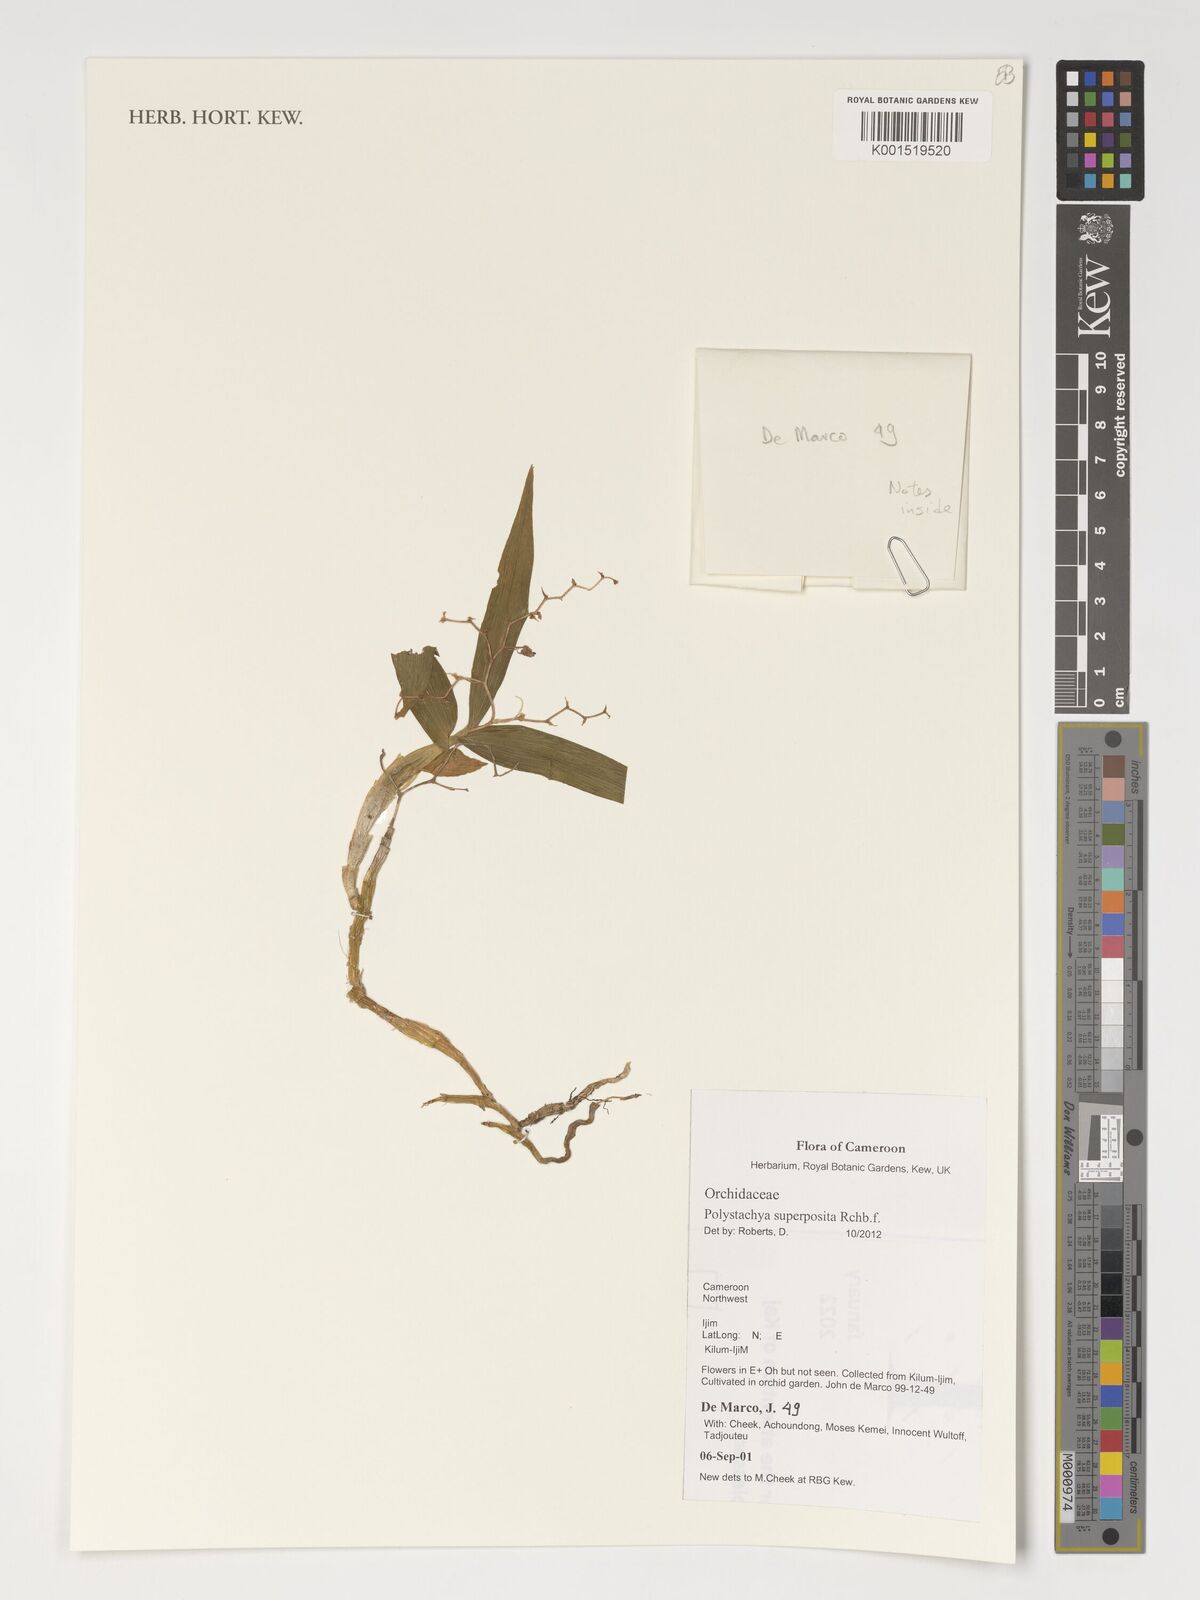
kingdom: Plantae
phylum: Tracheophyta
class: Liliopsida
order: Asparagales
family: Orchidaceae
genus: Polystachya
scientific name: Polystachya superposita
